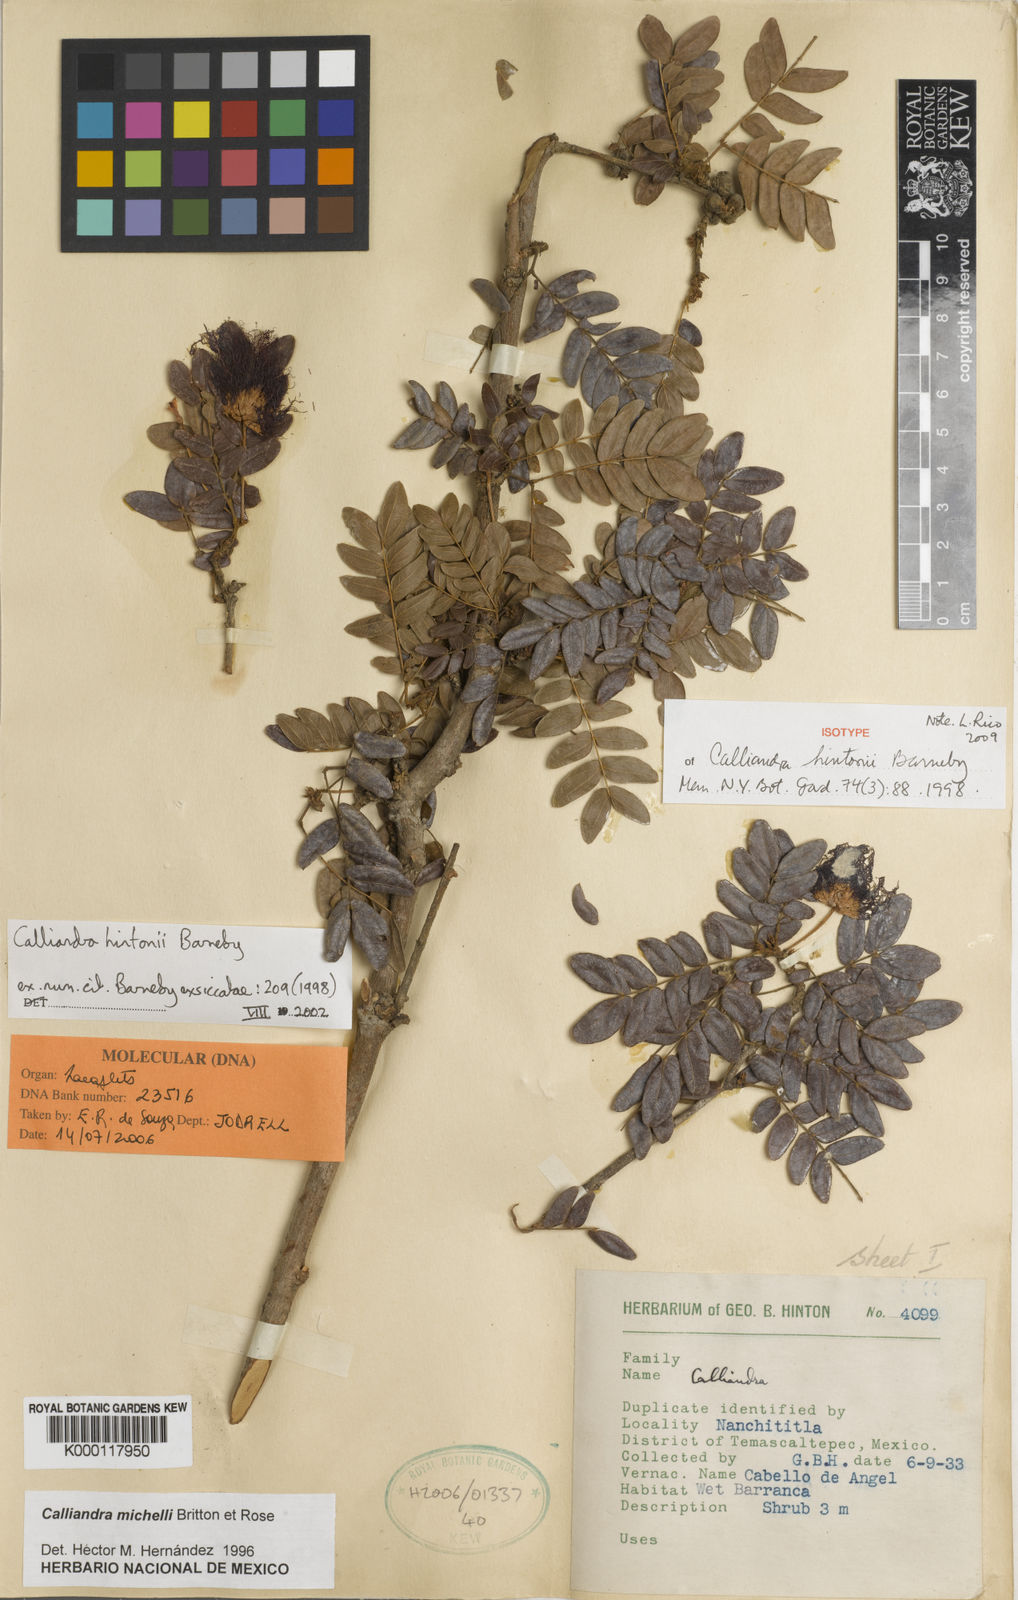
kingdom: Plantae
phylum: Tracheophyta
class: Magnoliopsida
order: Fabales
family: Fabaceae
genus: Calliandra
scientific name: Calliandra hintonii
